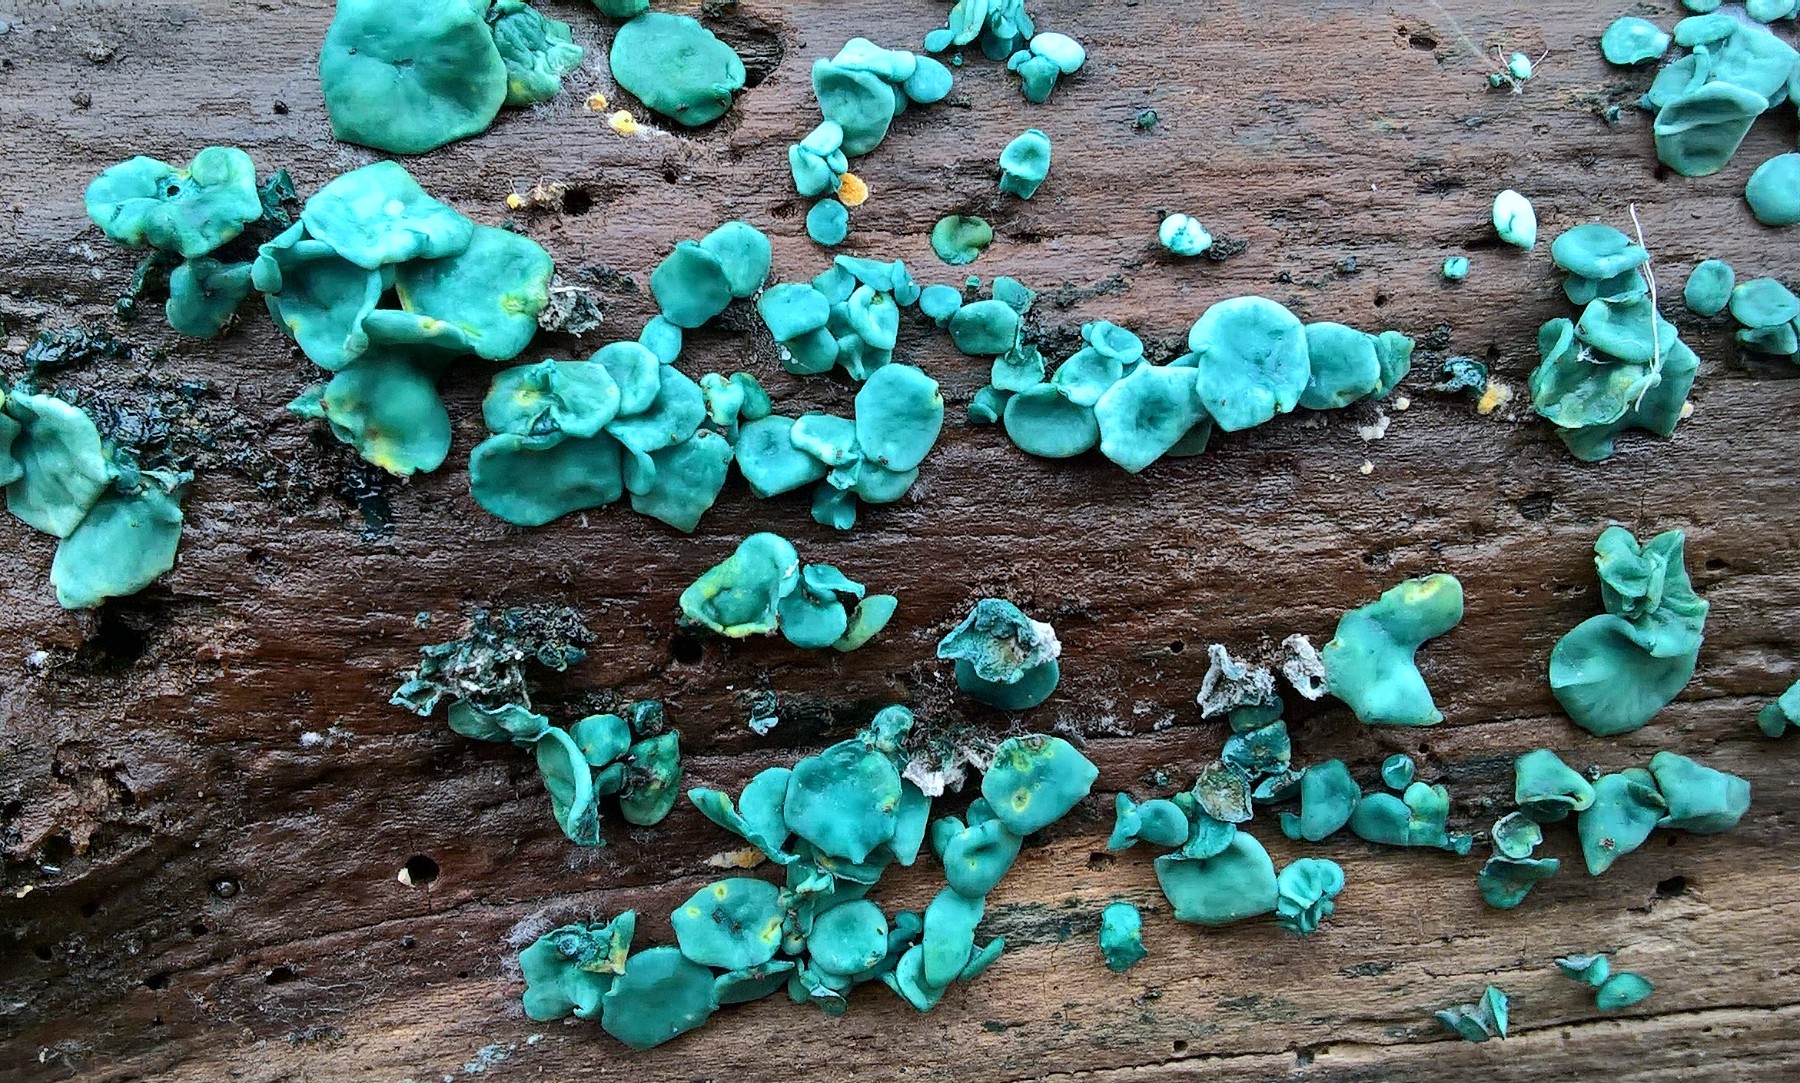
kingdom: Fungi
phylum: Ascomycota
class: Leotiomycetes
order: Helotiales
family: Chlorociboriaceae
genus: Chlorociboria
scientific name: Chlorociboria aeruginascens
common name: almindelig grønskive
